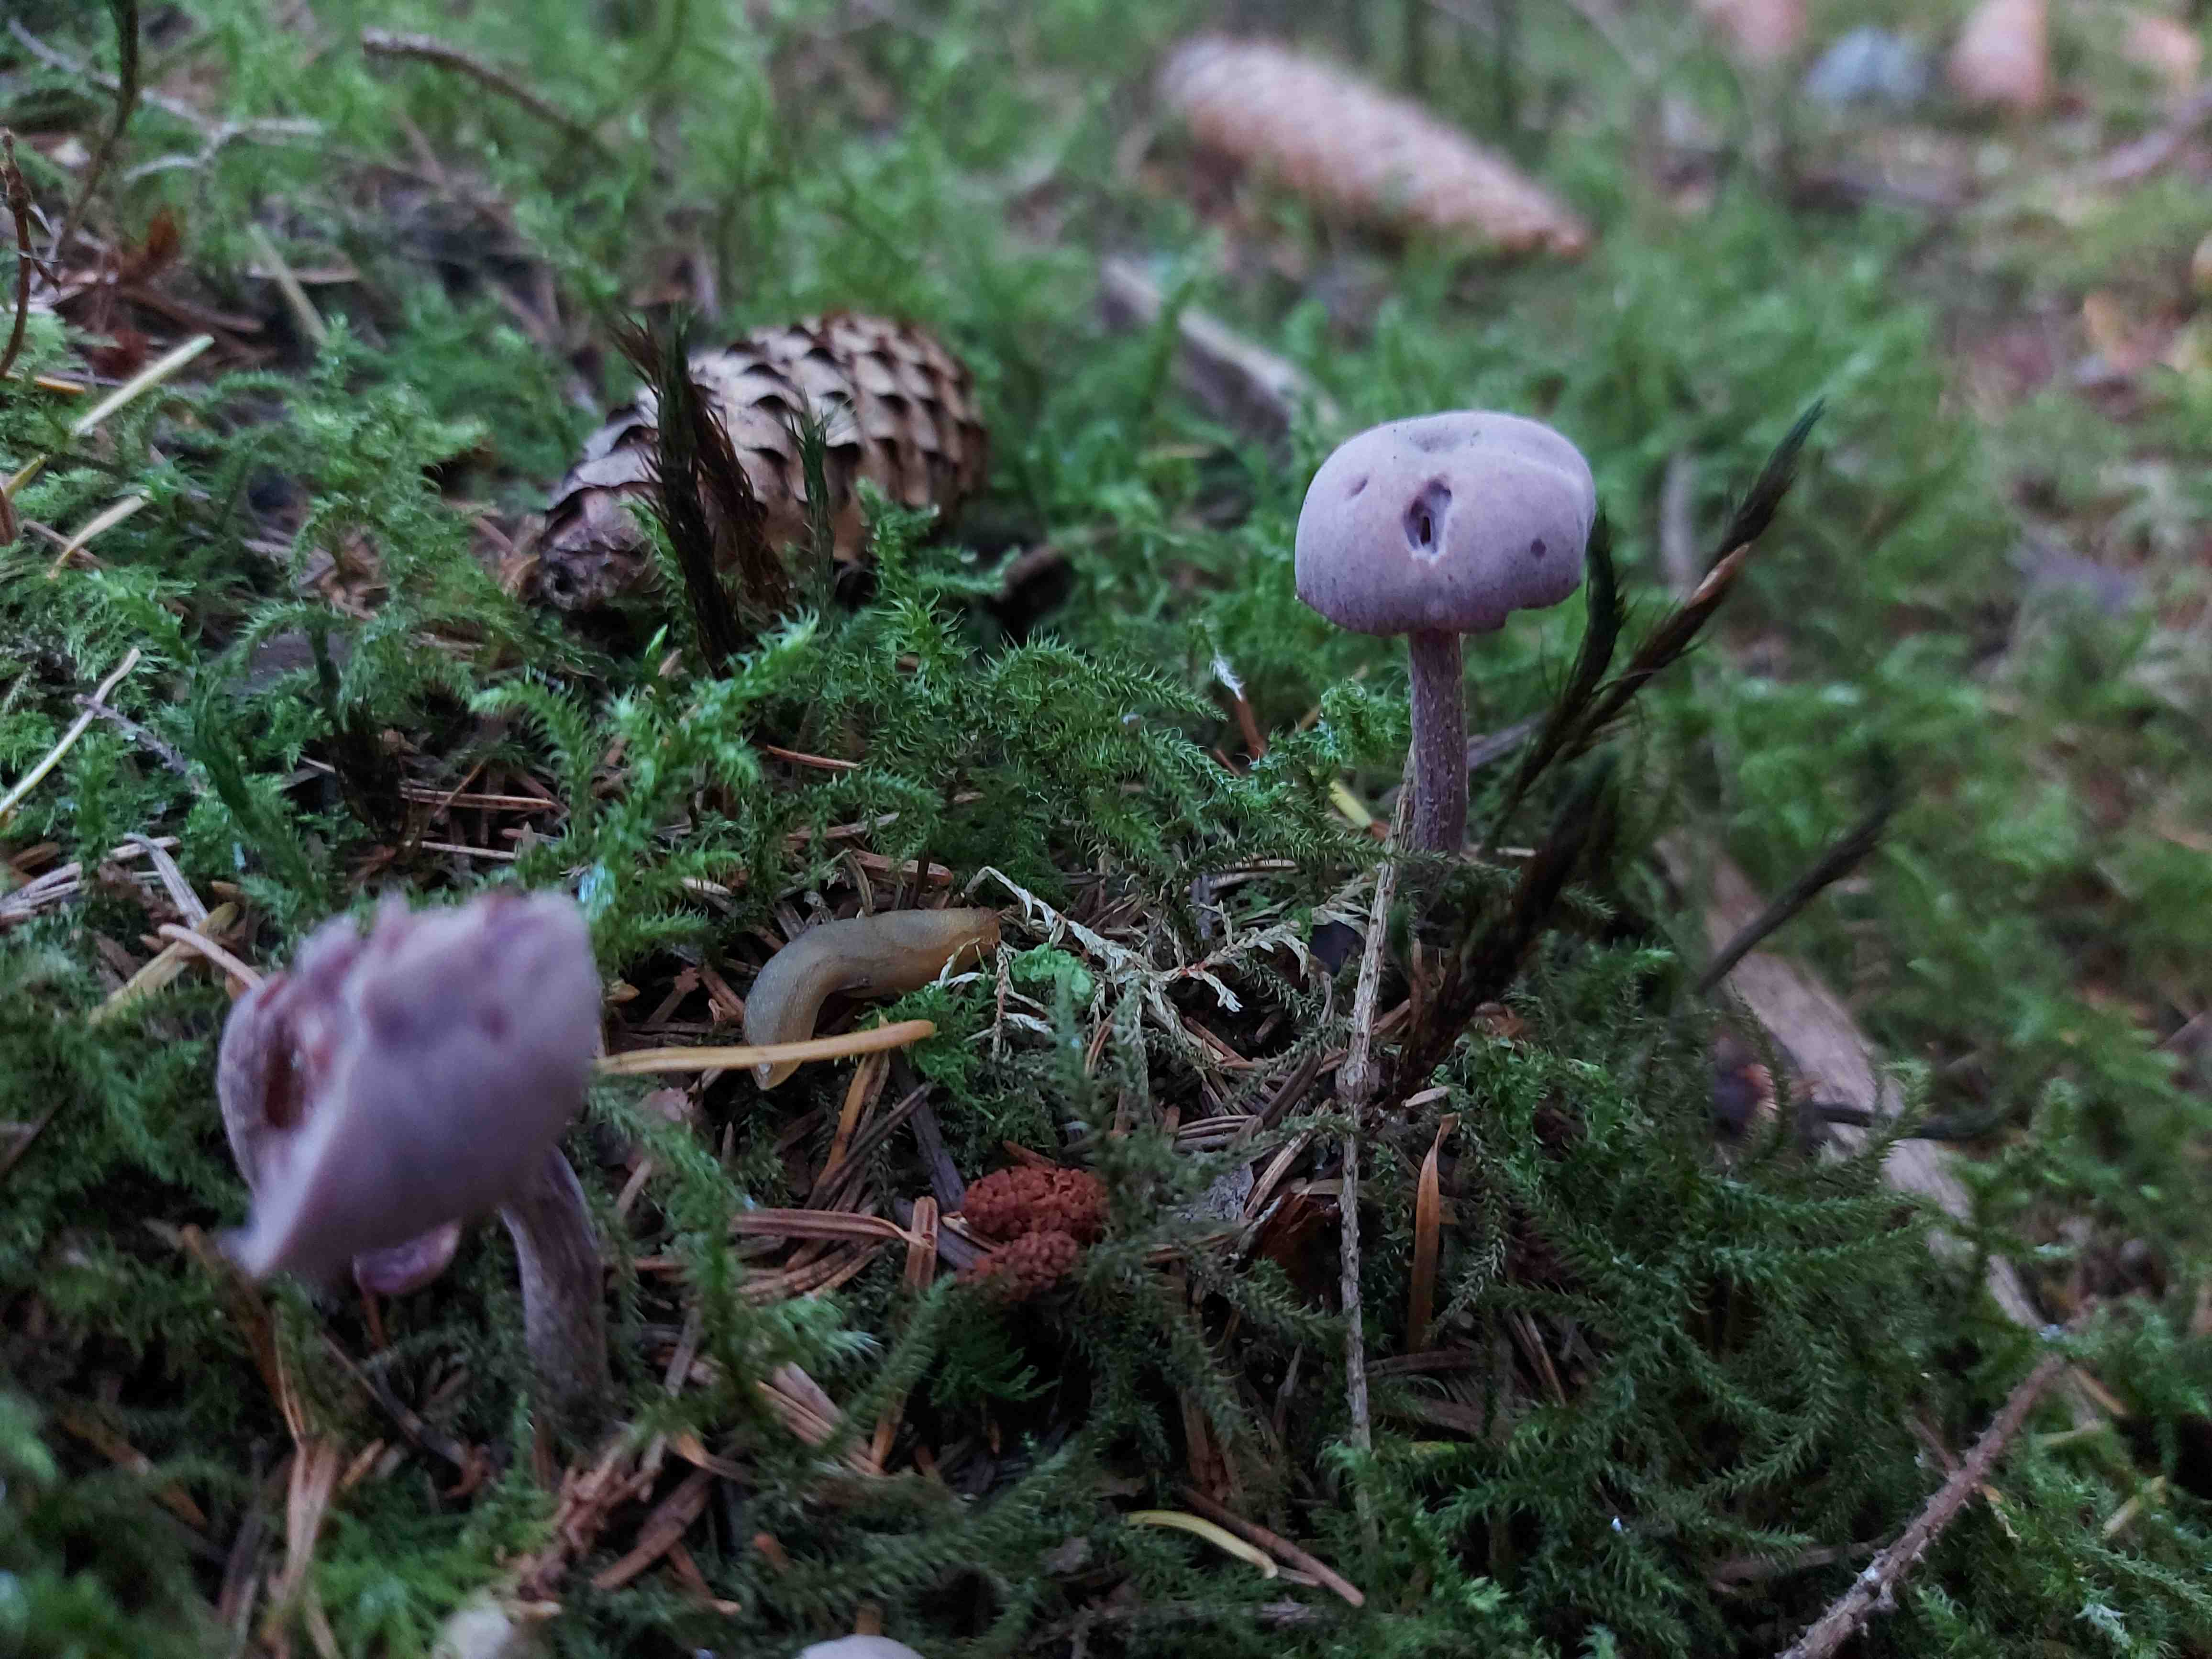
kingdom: Fungi
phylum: Basidiomycota
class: Agaricomycetes
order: Agaricales
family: Hydnangiaceae
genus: Laccaria
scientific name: Laccaria amethystina
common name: violet ametysthat
